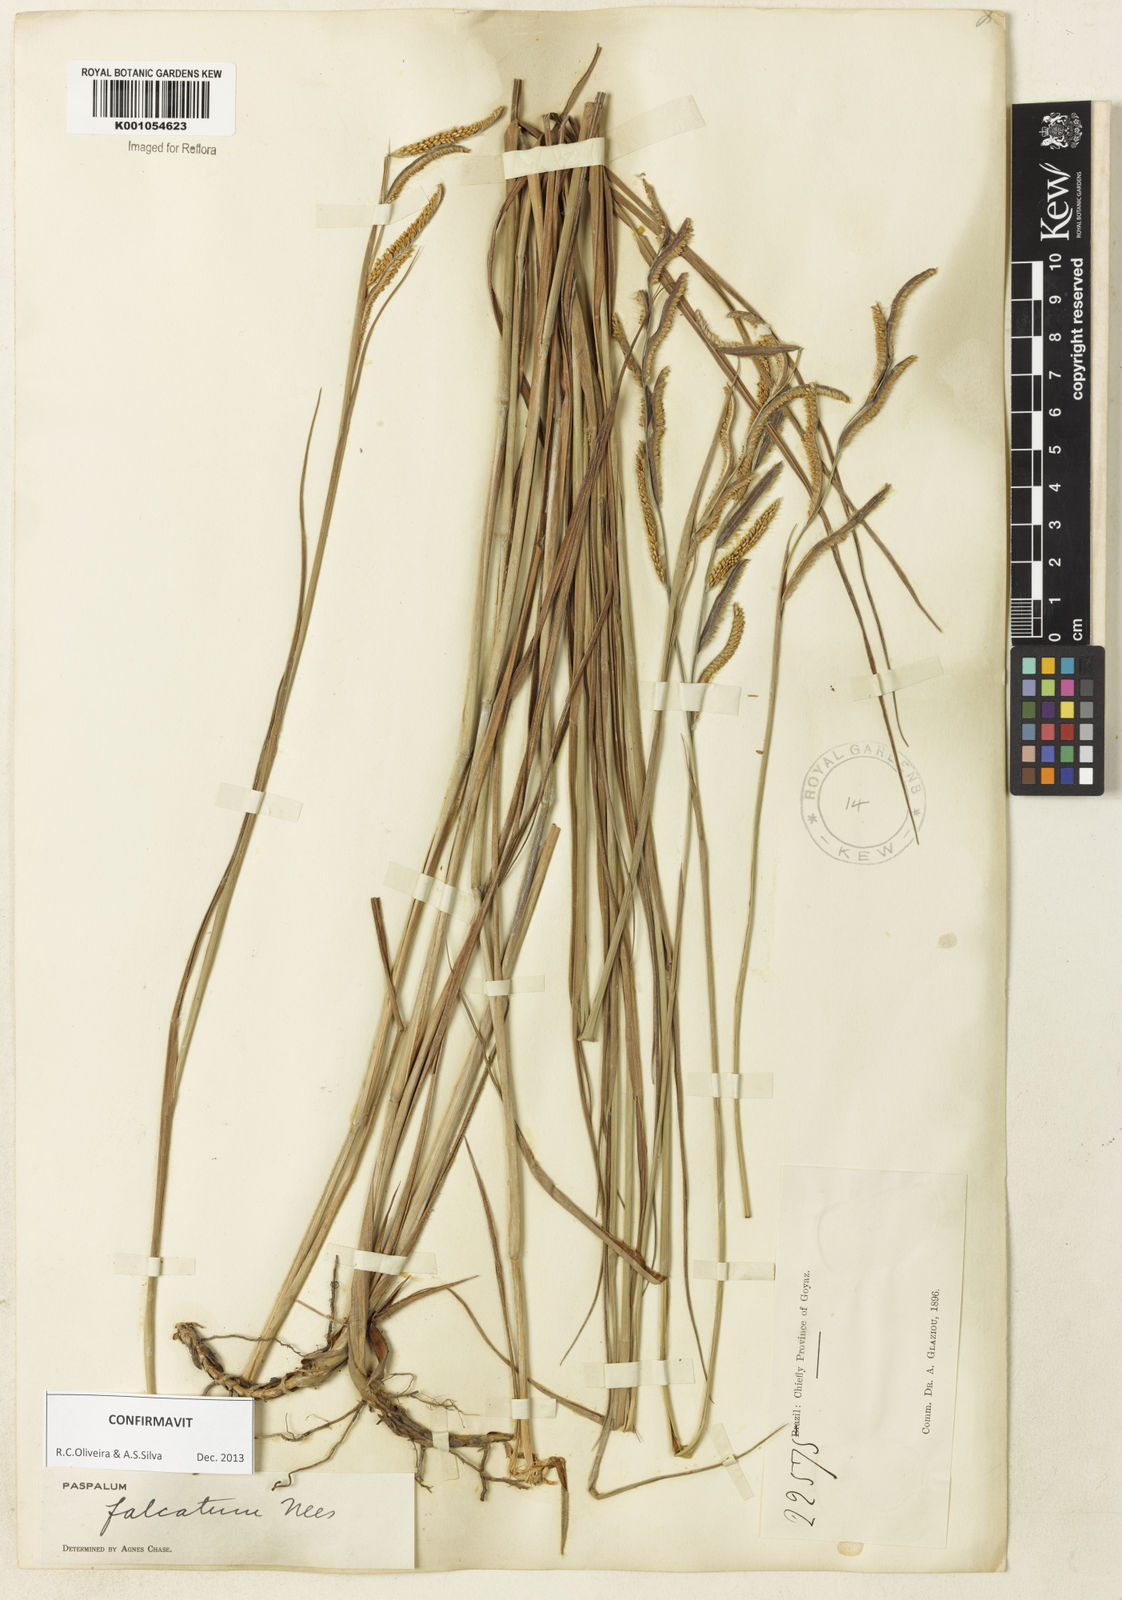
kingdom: Plantae
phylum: Tracheophyta
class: Liliopsida
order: Poales
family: Poaceae
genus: Paspalum
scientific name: Paspalum falcatum
